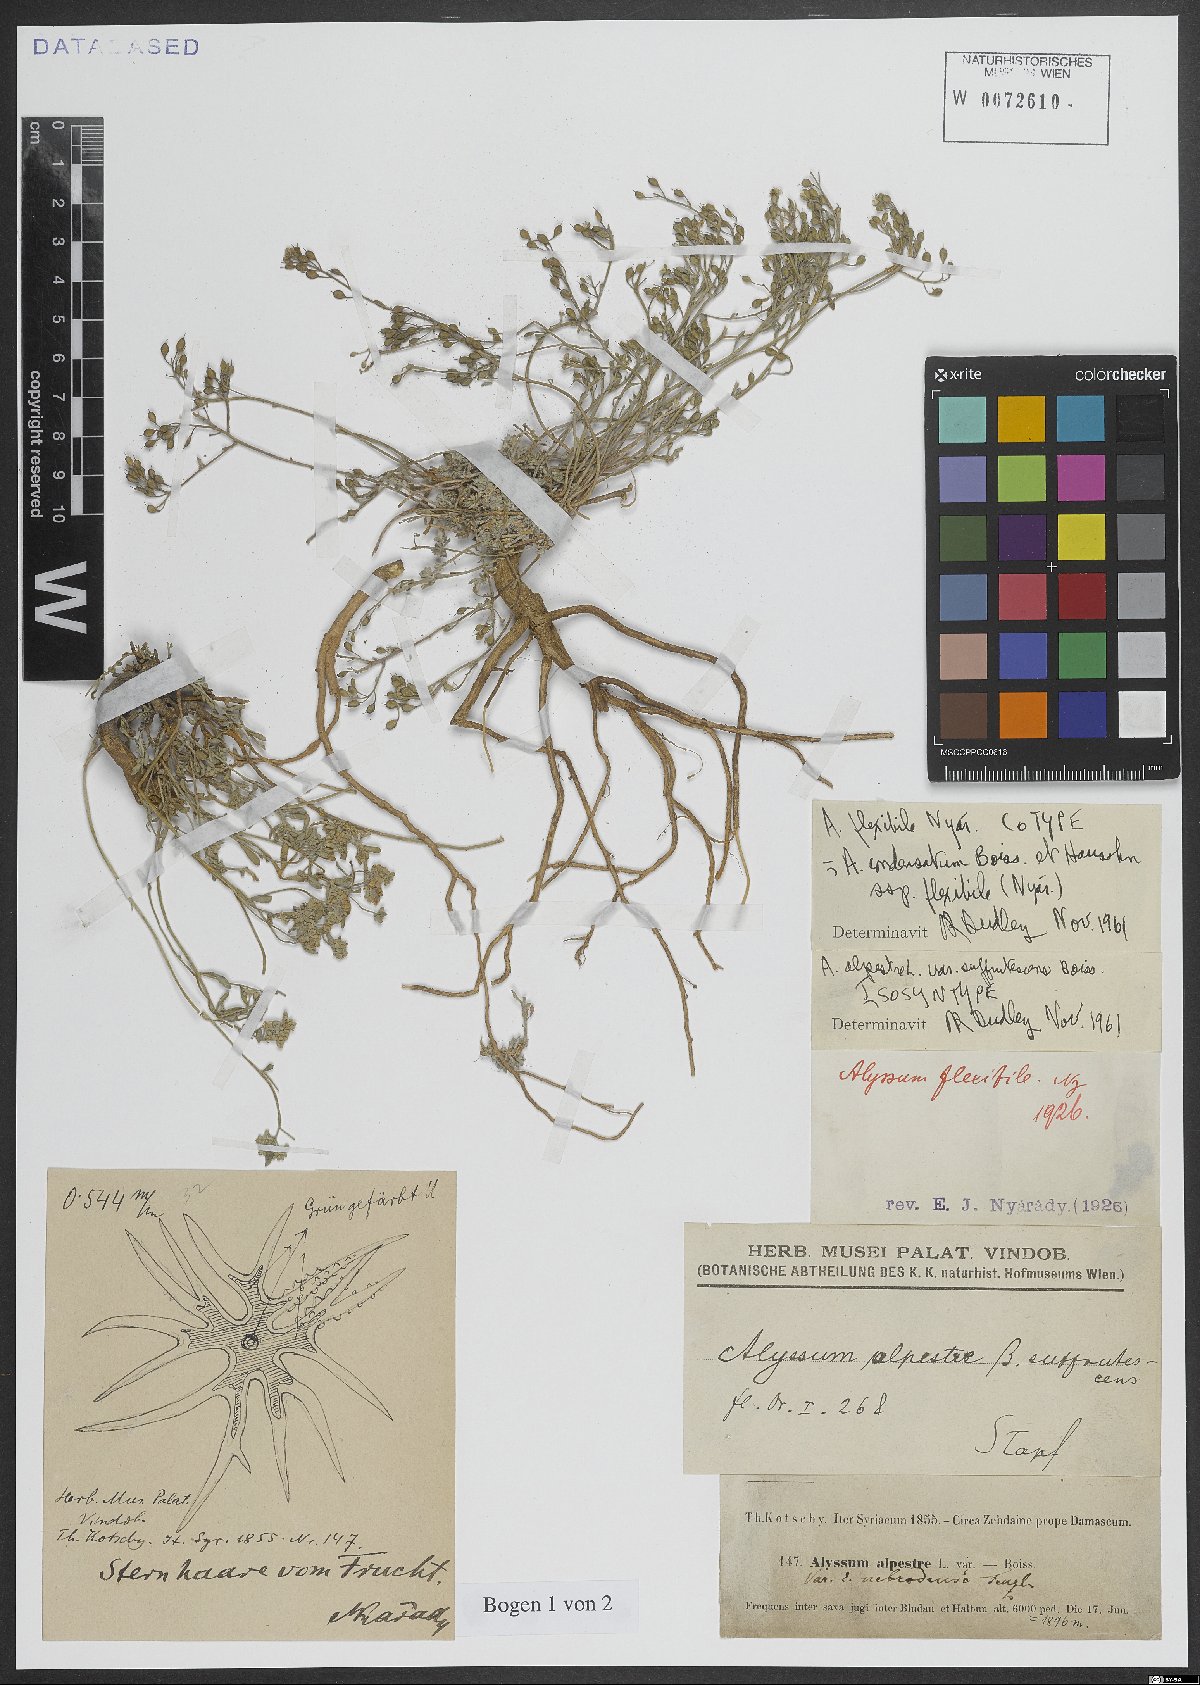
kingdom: Plantae
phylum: Tracheophyta
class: Magnoliopsida
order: Brassicales
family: Brassicaceae
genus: Odontarrhena
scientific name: Odontarrhena condensata
